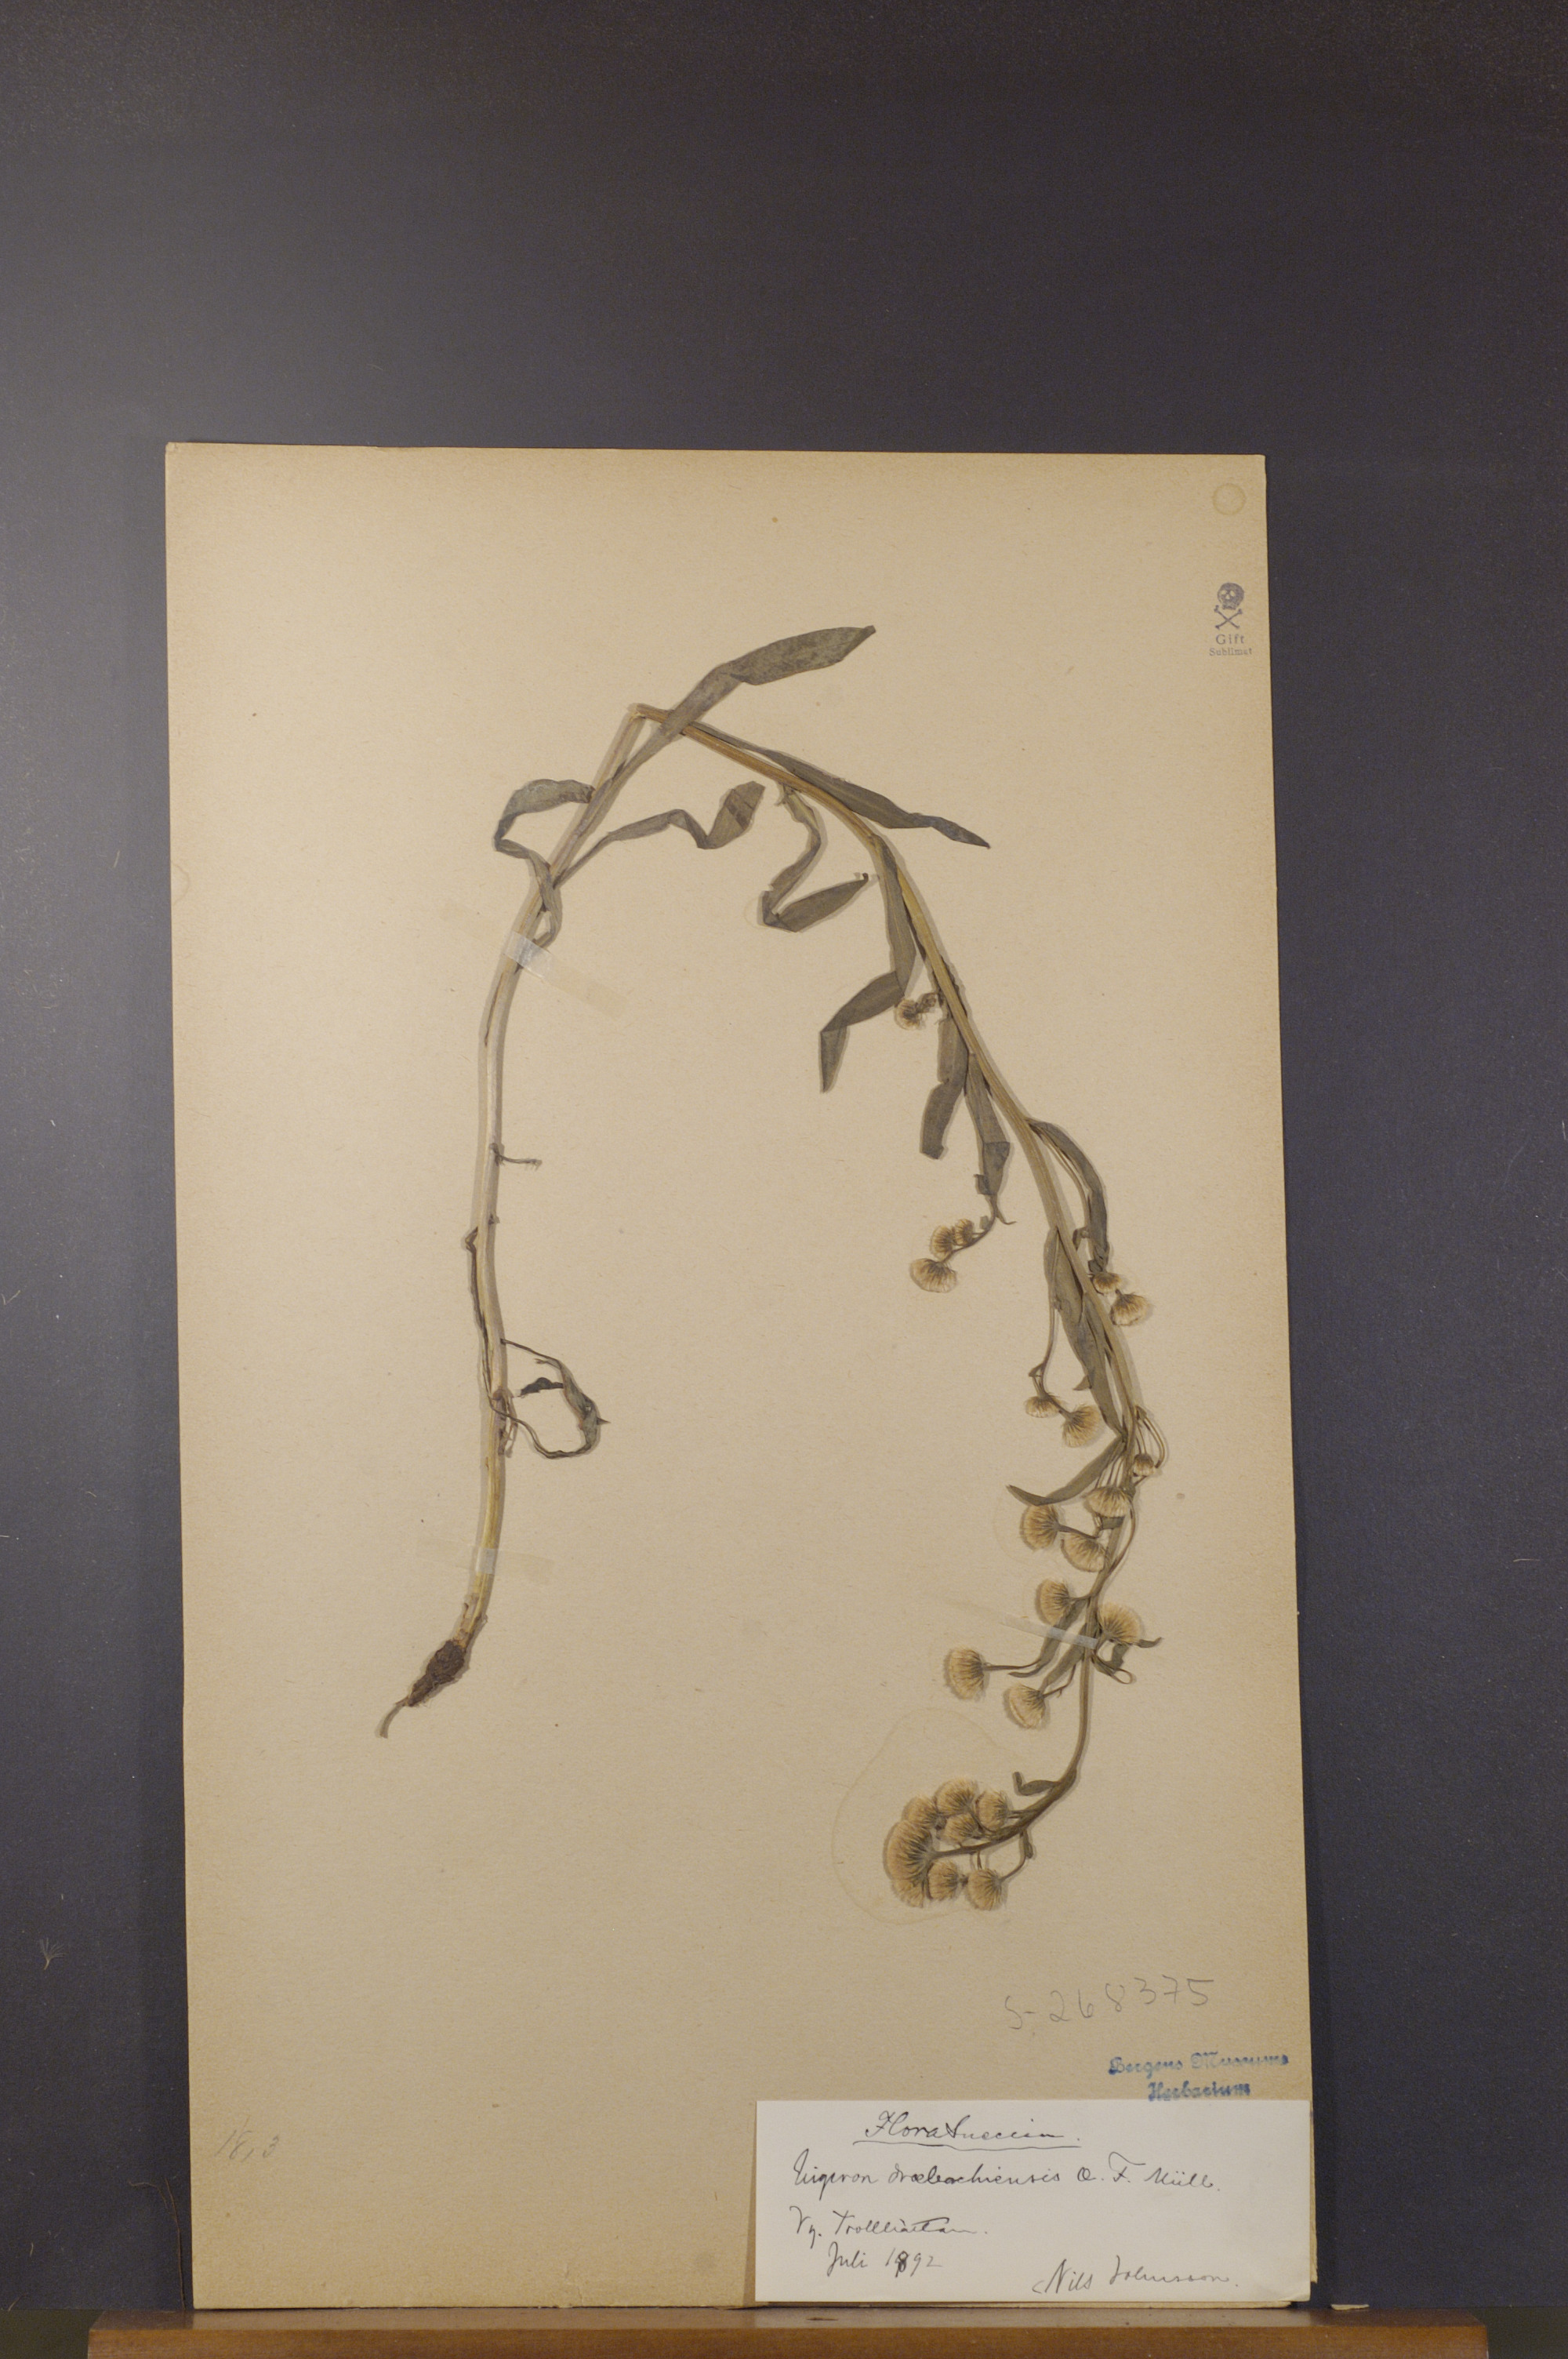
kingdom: Plantae
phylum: Tracheophyta
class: Magnoliopsida
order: Asterales
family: Asteraceae
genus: Erigeron
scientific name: Erigeron droebachiensis
